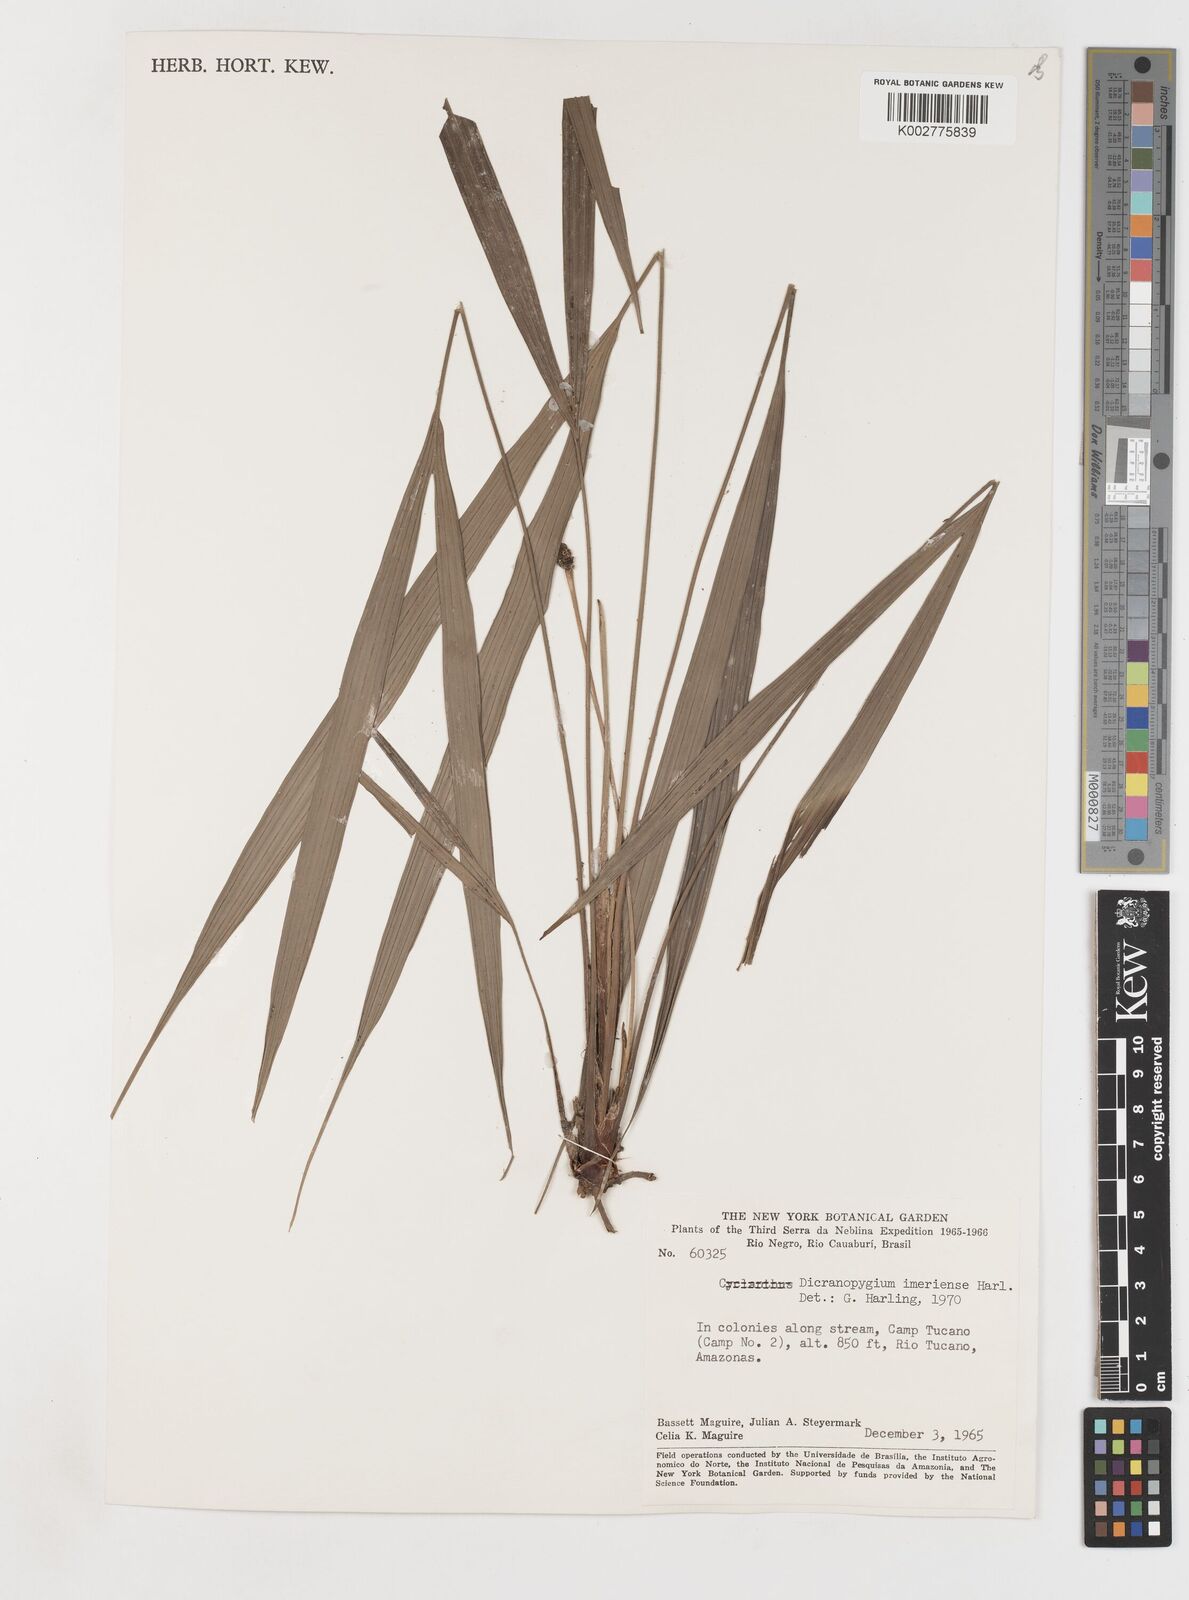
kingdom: Plantae
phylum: Tracheophyta
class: Liliopsida
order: Pandanales
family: Cyclanthaceae
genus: Dicranopygium
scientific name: Dicranopygium imeriense
